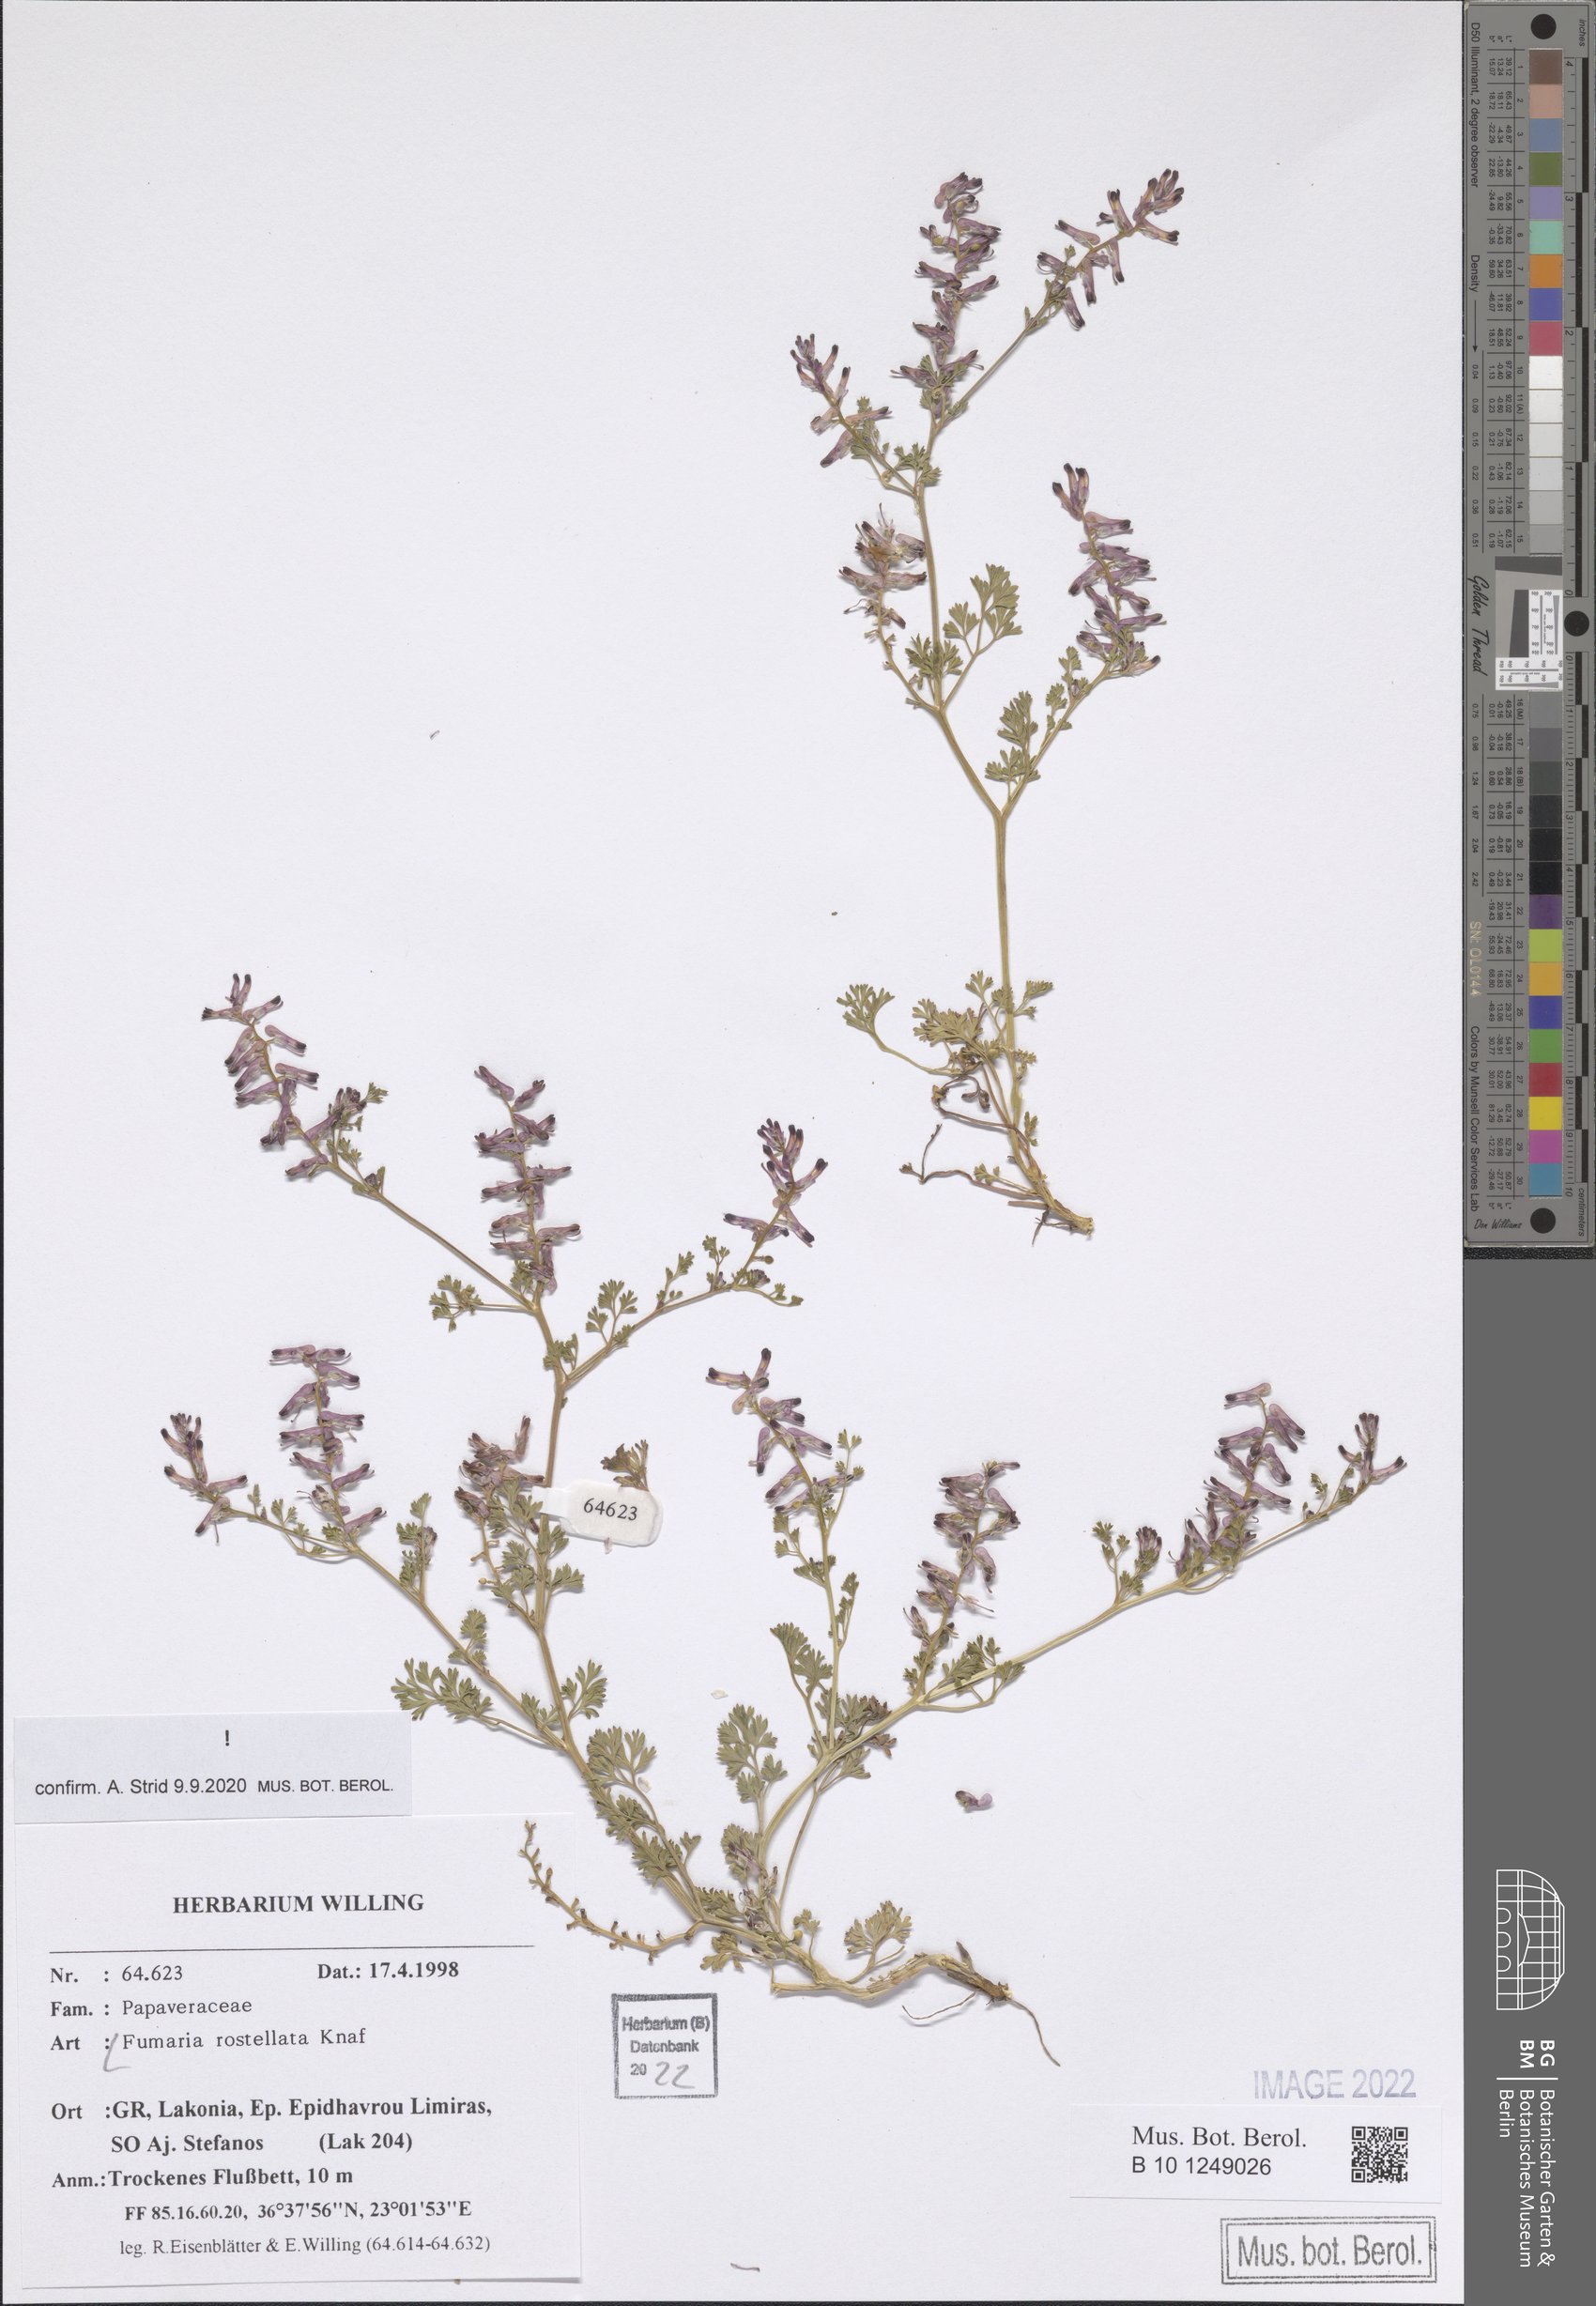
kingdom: Plantae
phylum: Tracheophyta
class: Magnoliopsida
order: Ranunculales
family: Papaveraceae
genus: Fumaria
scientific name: Fumaria rostellata
